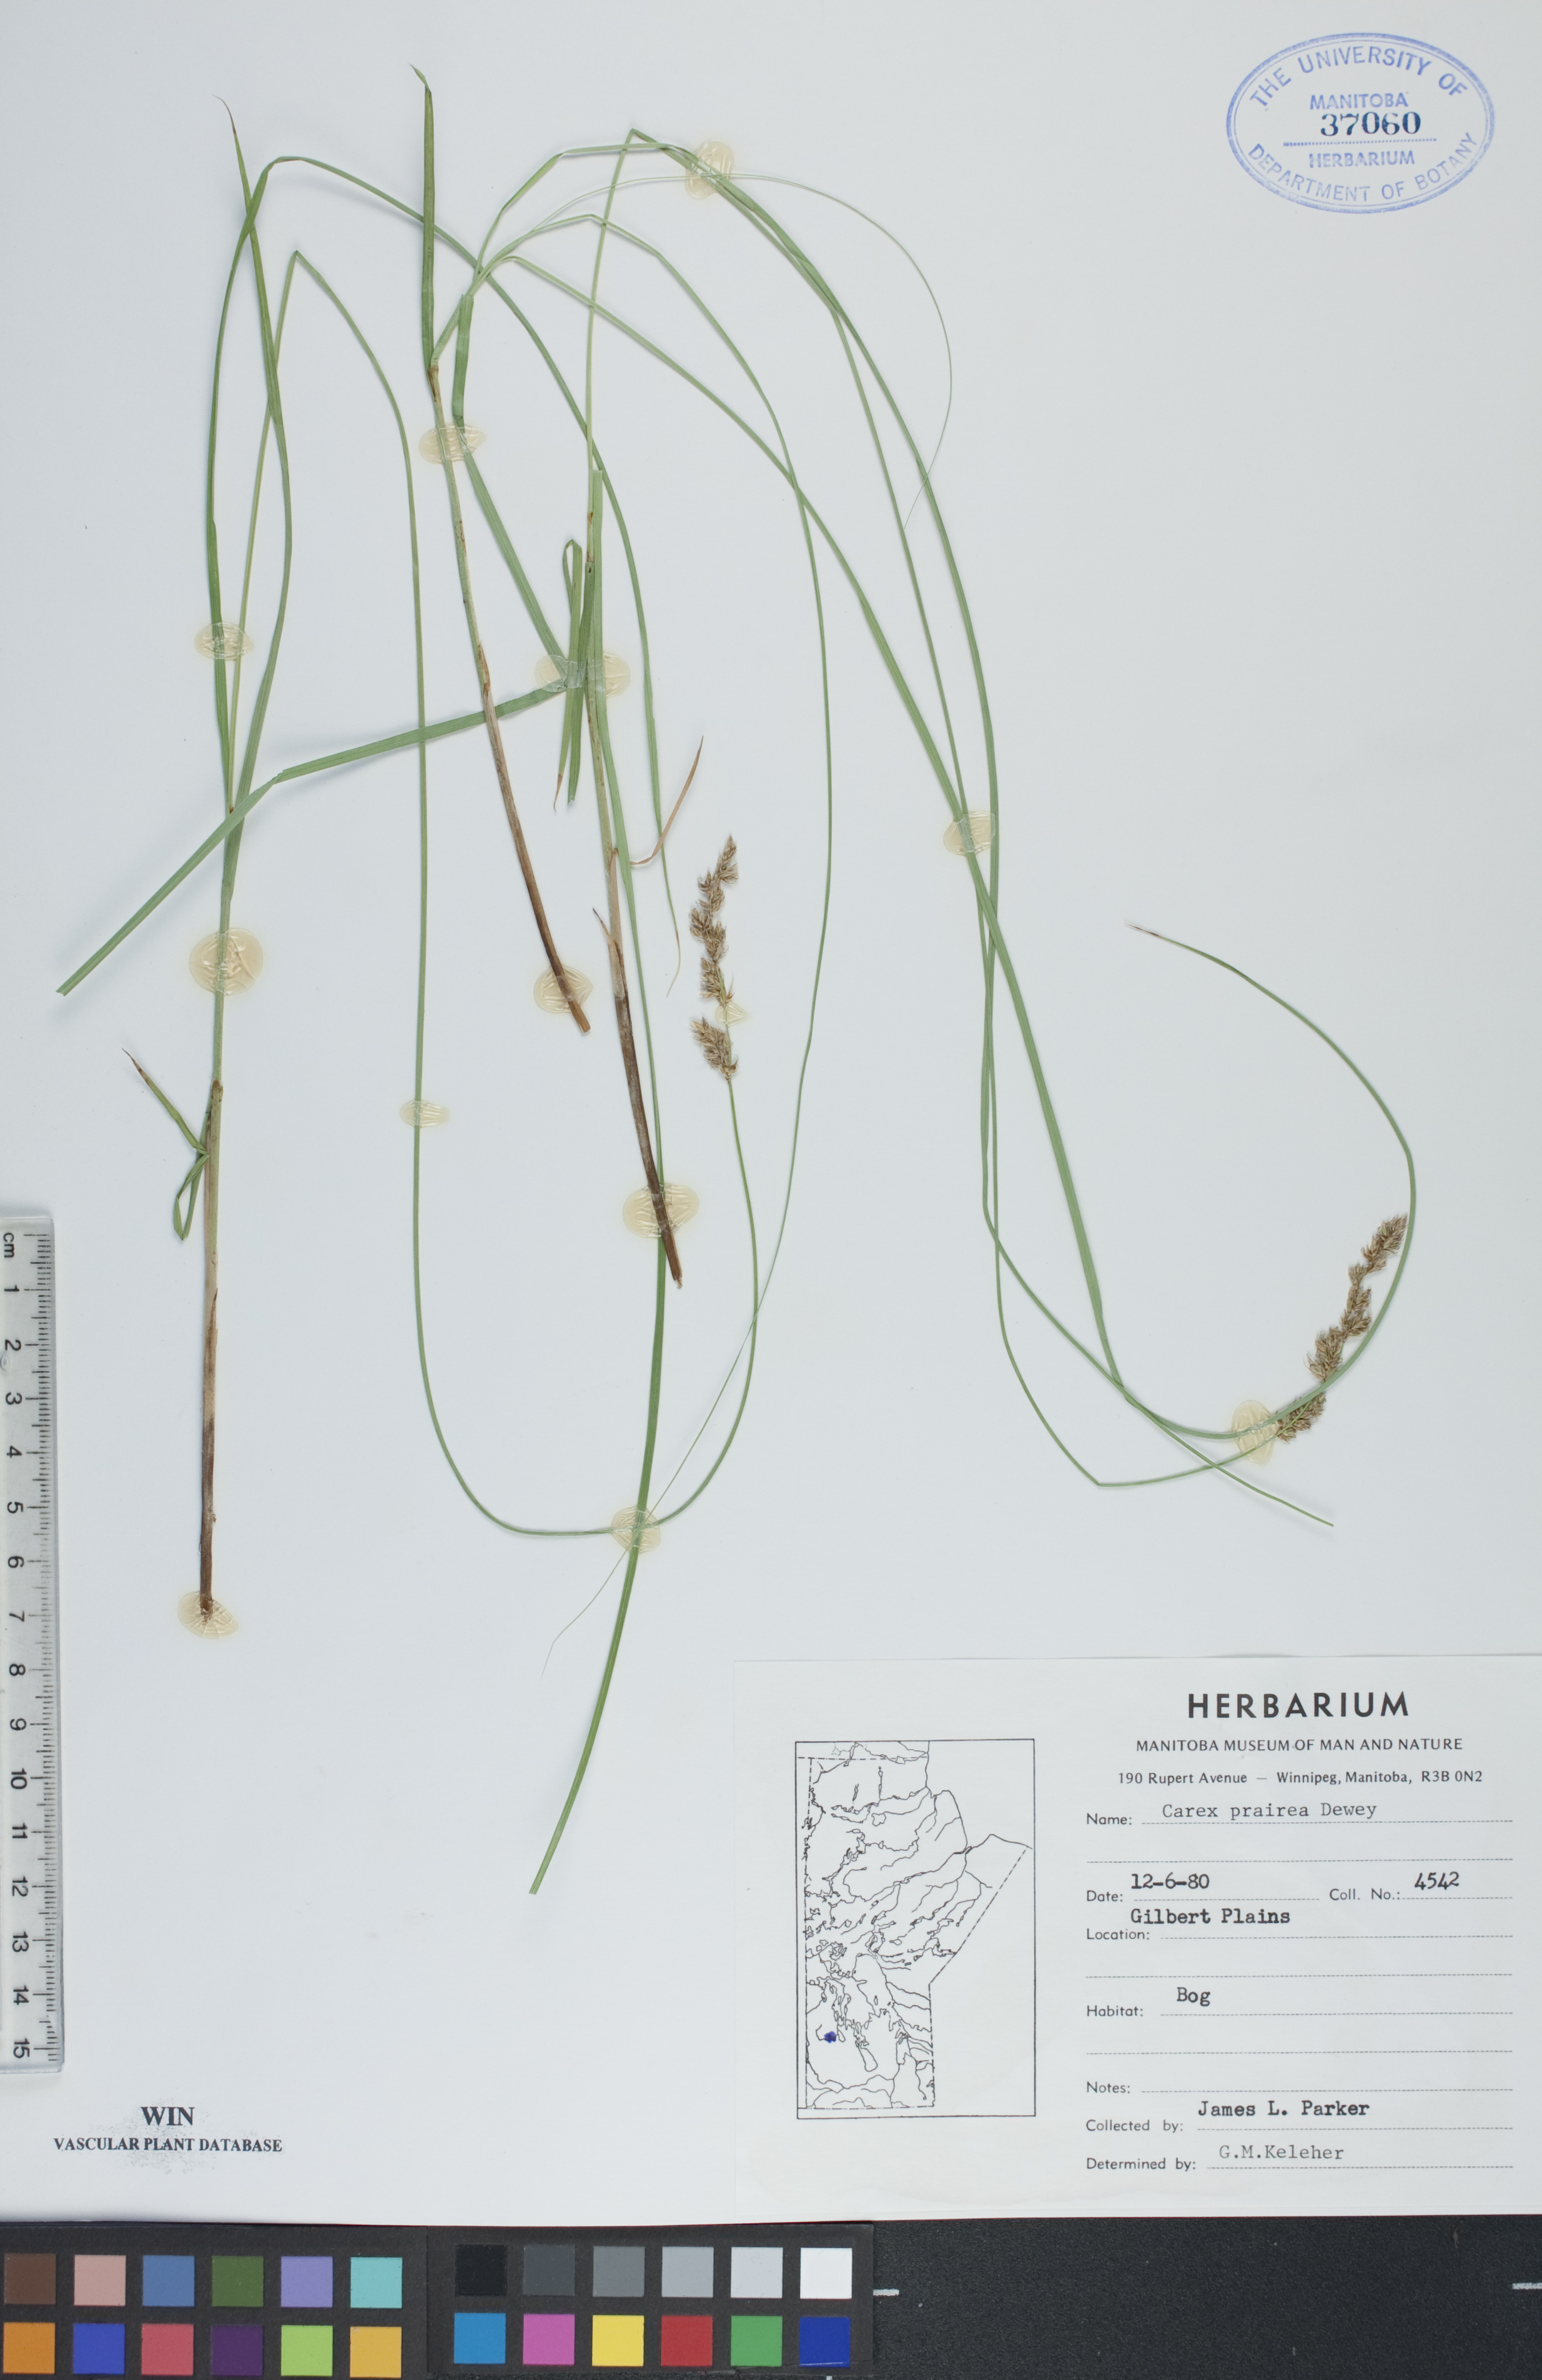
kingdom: Plantae
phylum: Tracheophyta
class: Liliopsida
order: Poales
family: Cyperaceae
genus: Carex
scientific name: Carex prairea
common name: Prairie sedge
